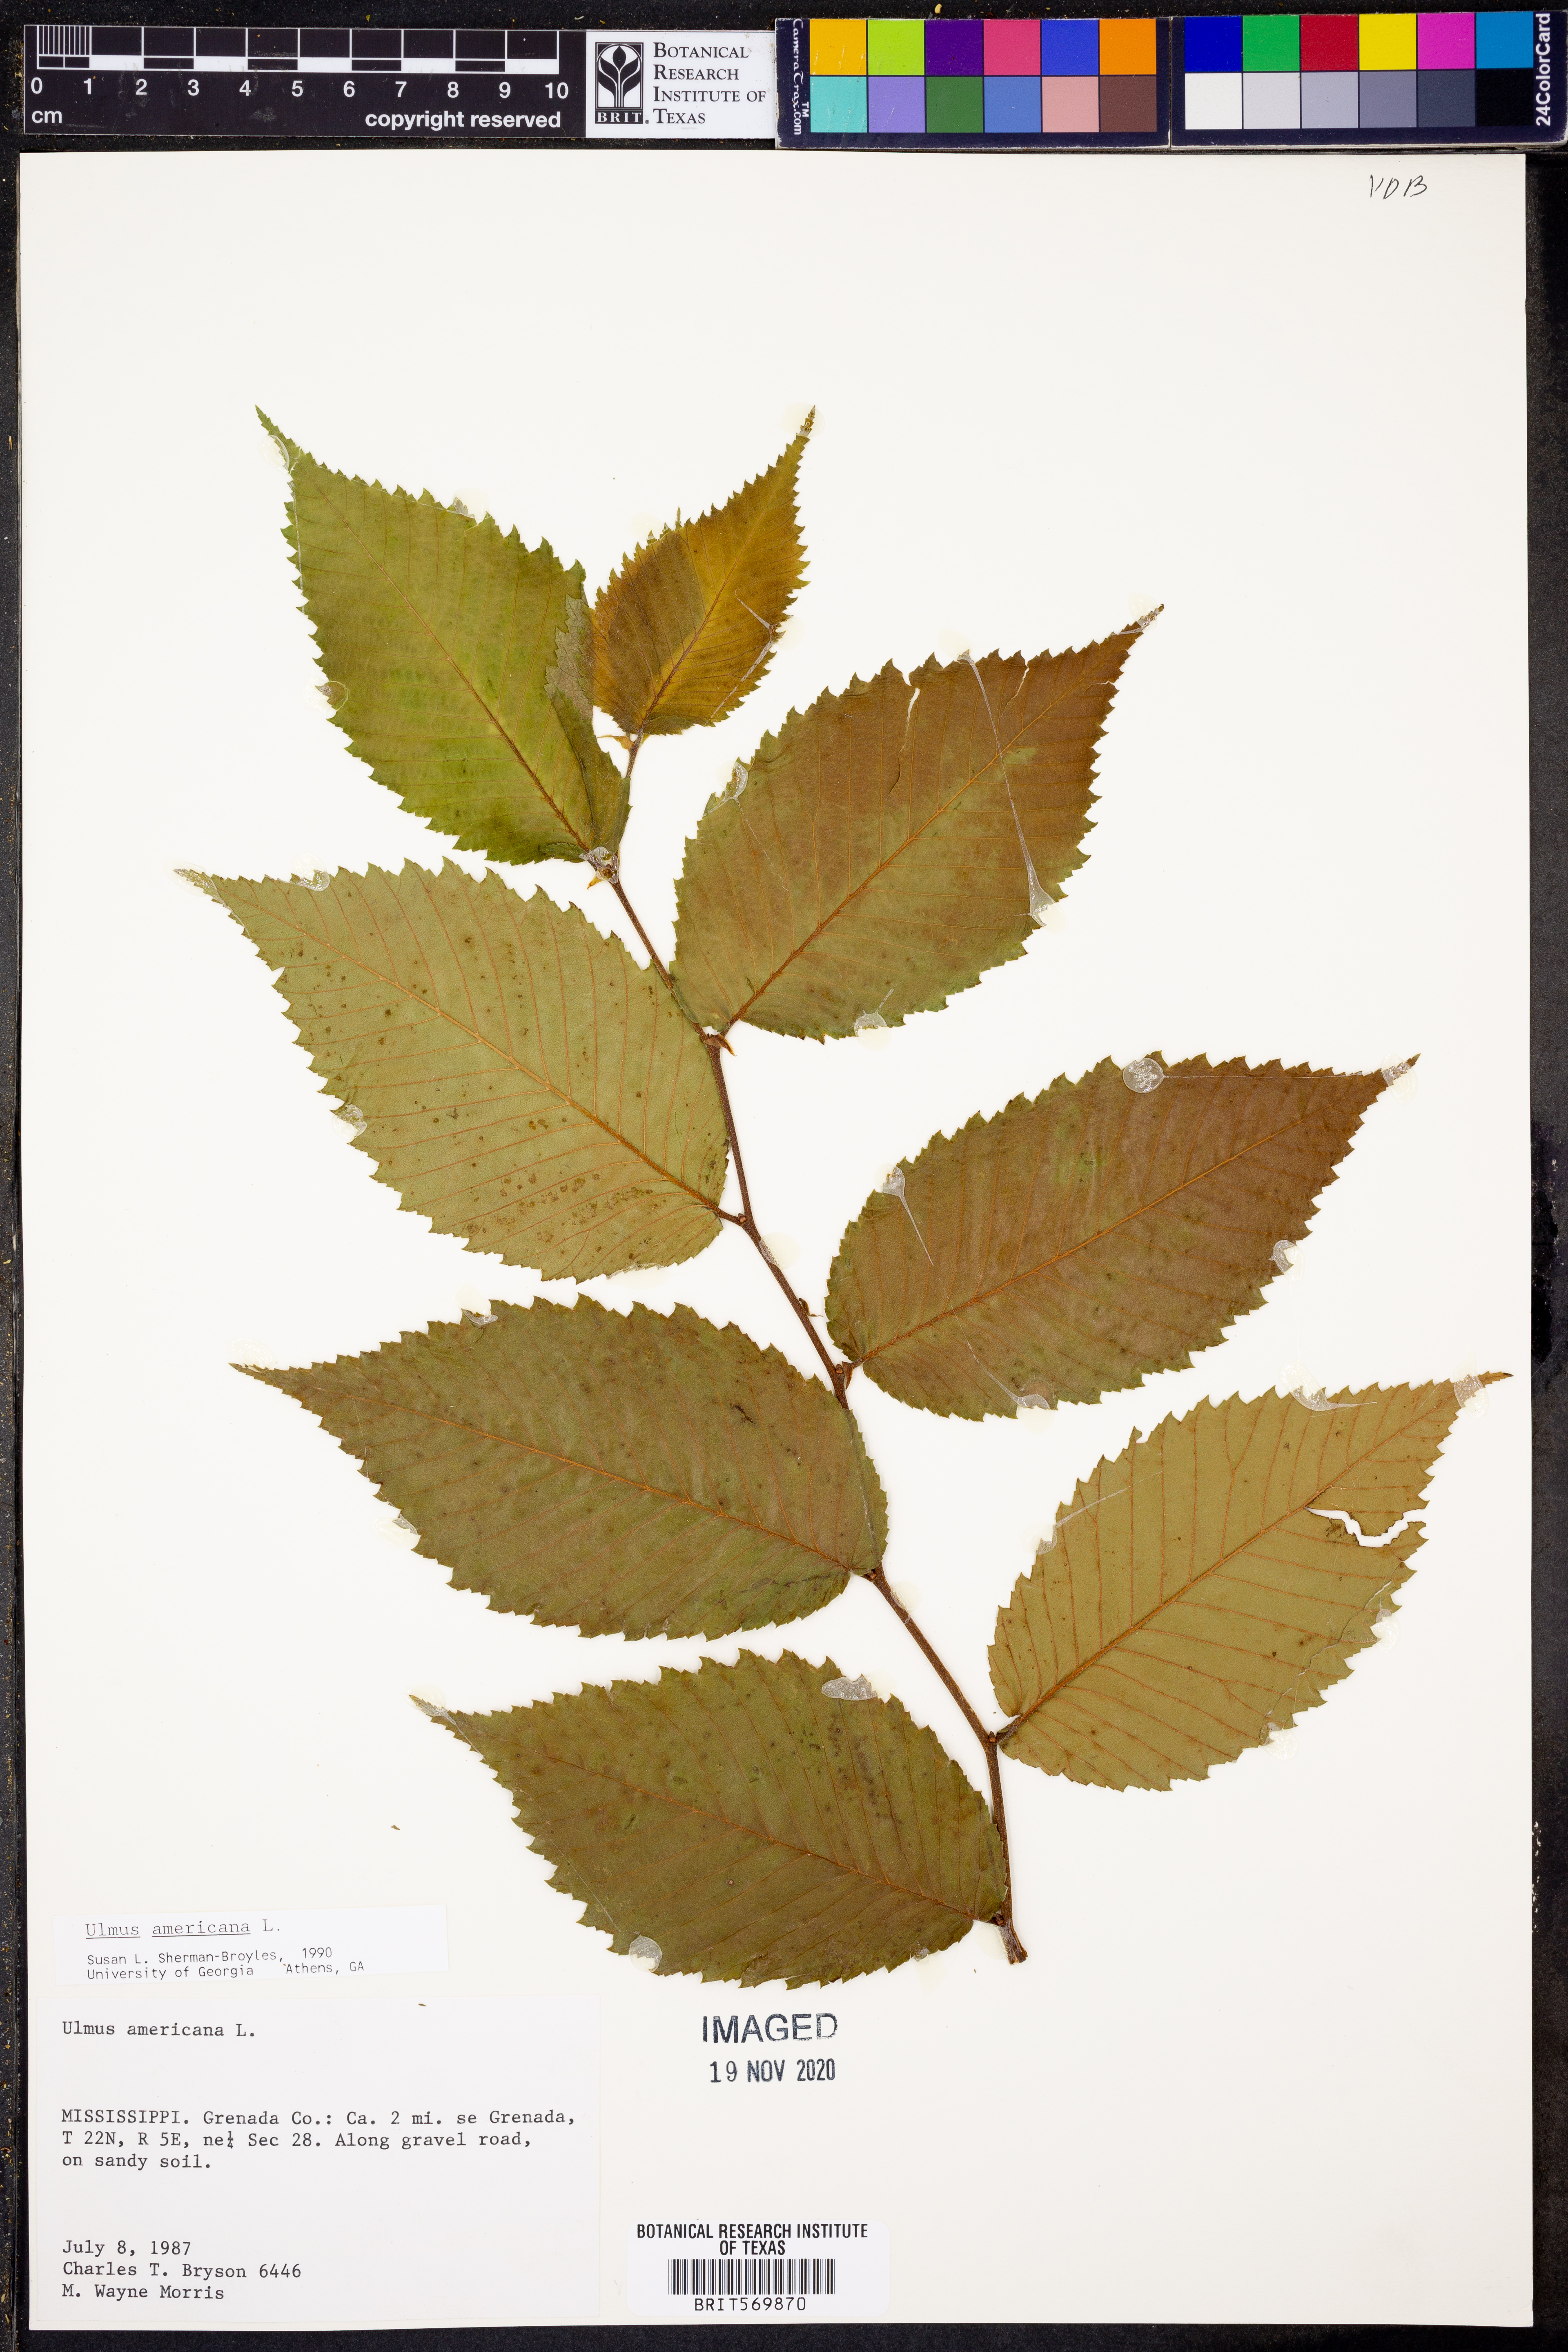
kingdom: Plantae
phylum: Tracheophyta
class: Magnoliopsida
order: Rosales
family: Ulmaceae
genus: Ulmus
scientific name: Ulmus americana
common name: American elm
